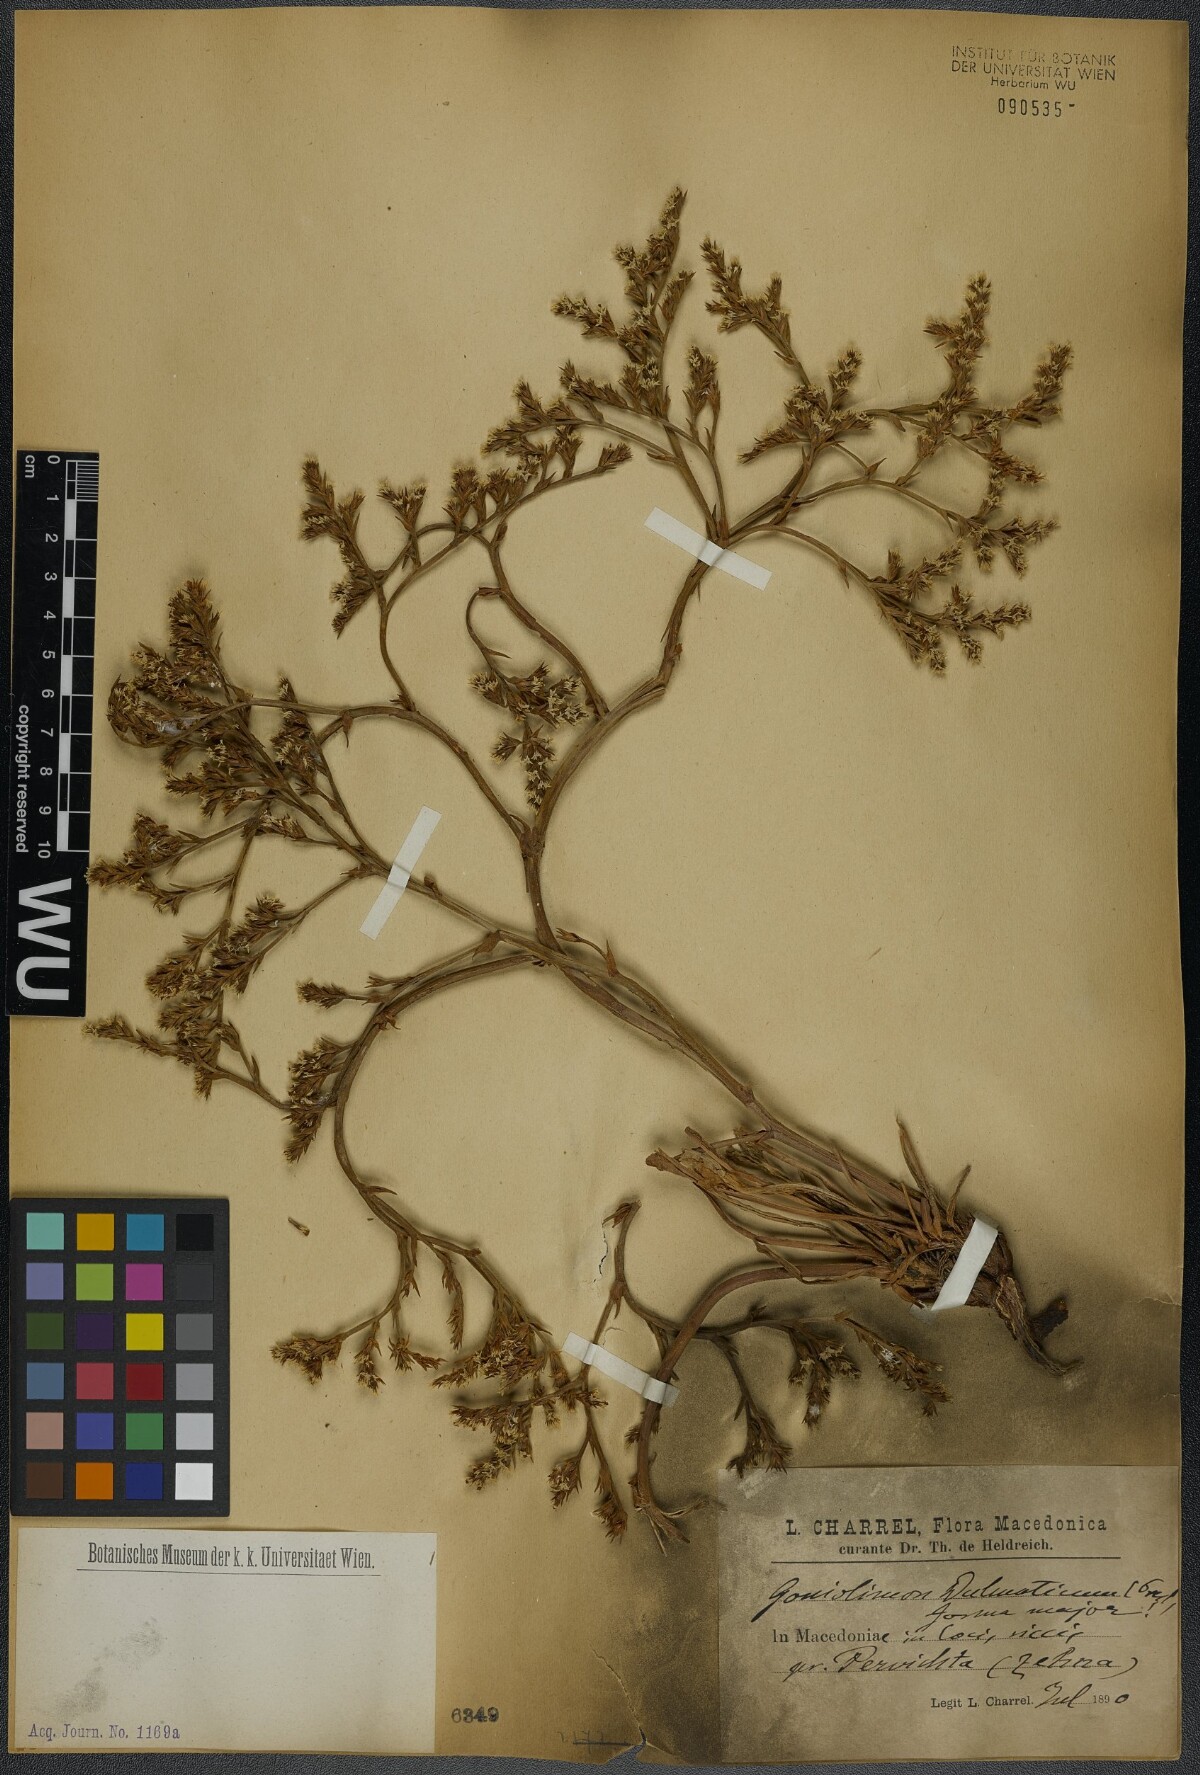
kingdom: Plantae
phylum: Tracheophyta
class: Magnoliopsida
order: Caryophyllales
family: Plumbaginaceae
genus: Goniolimon
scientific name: Goniolimon dalmaticum
